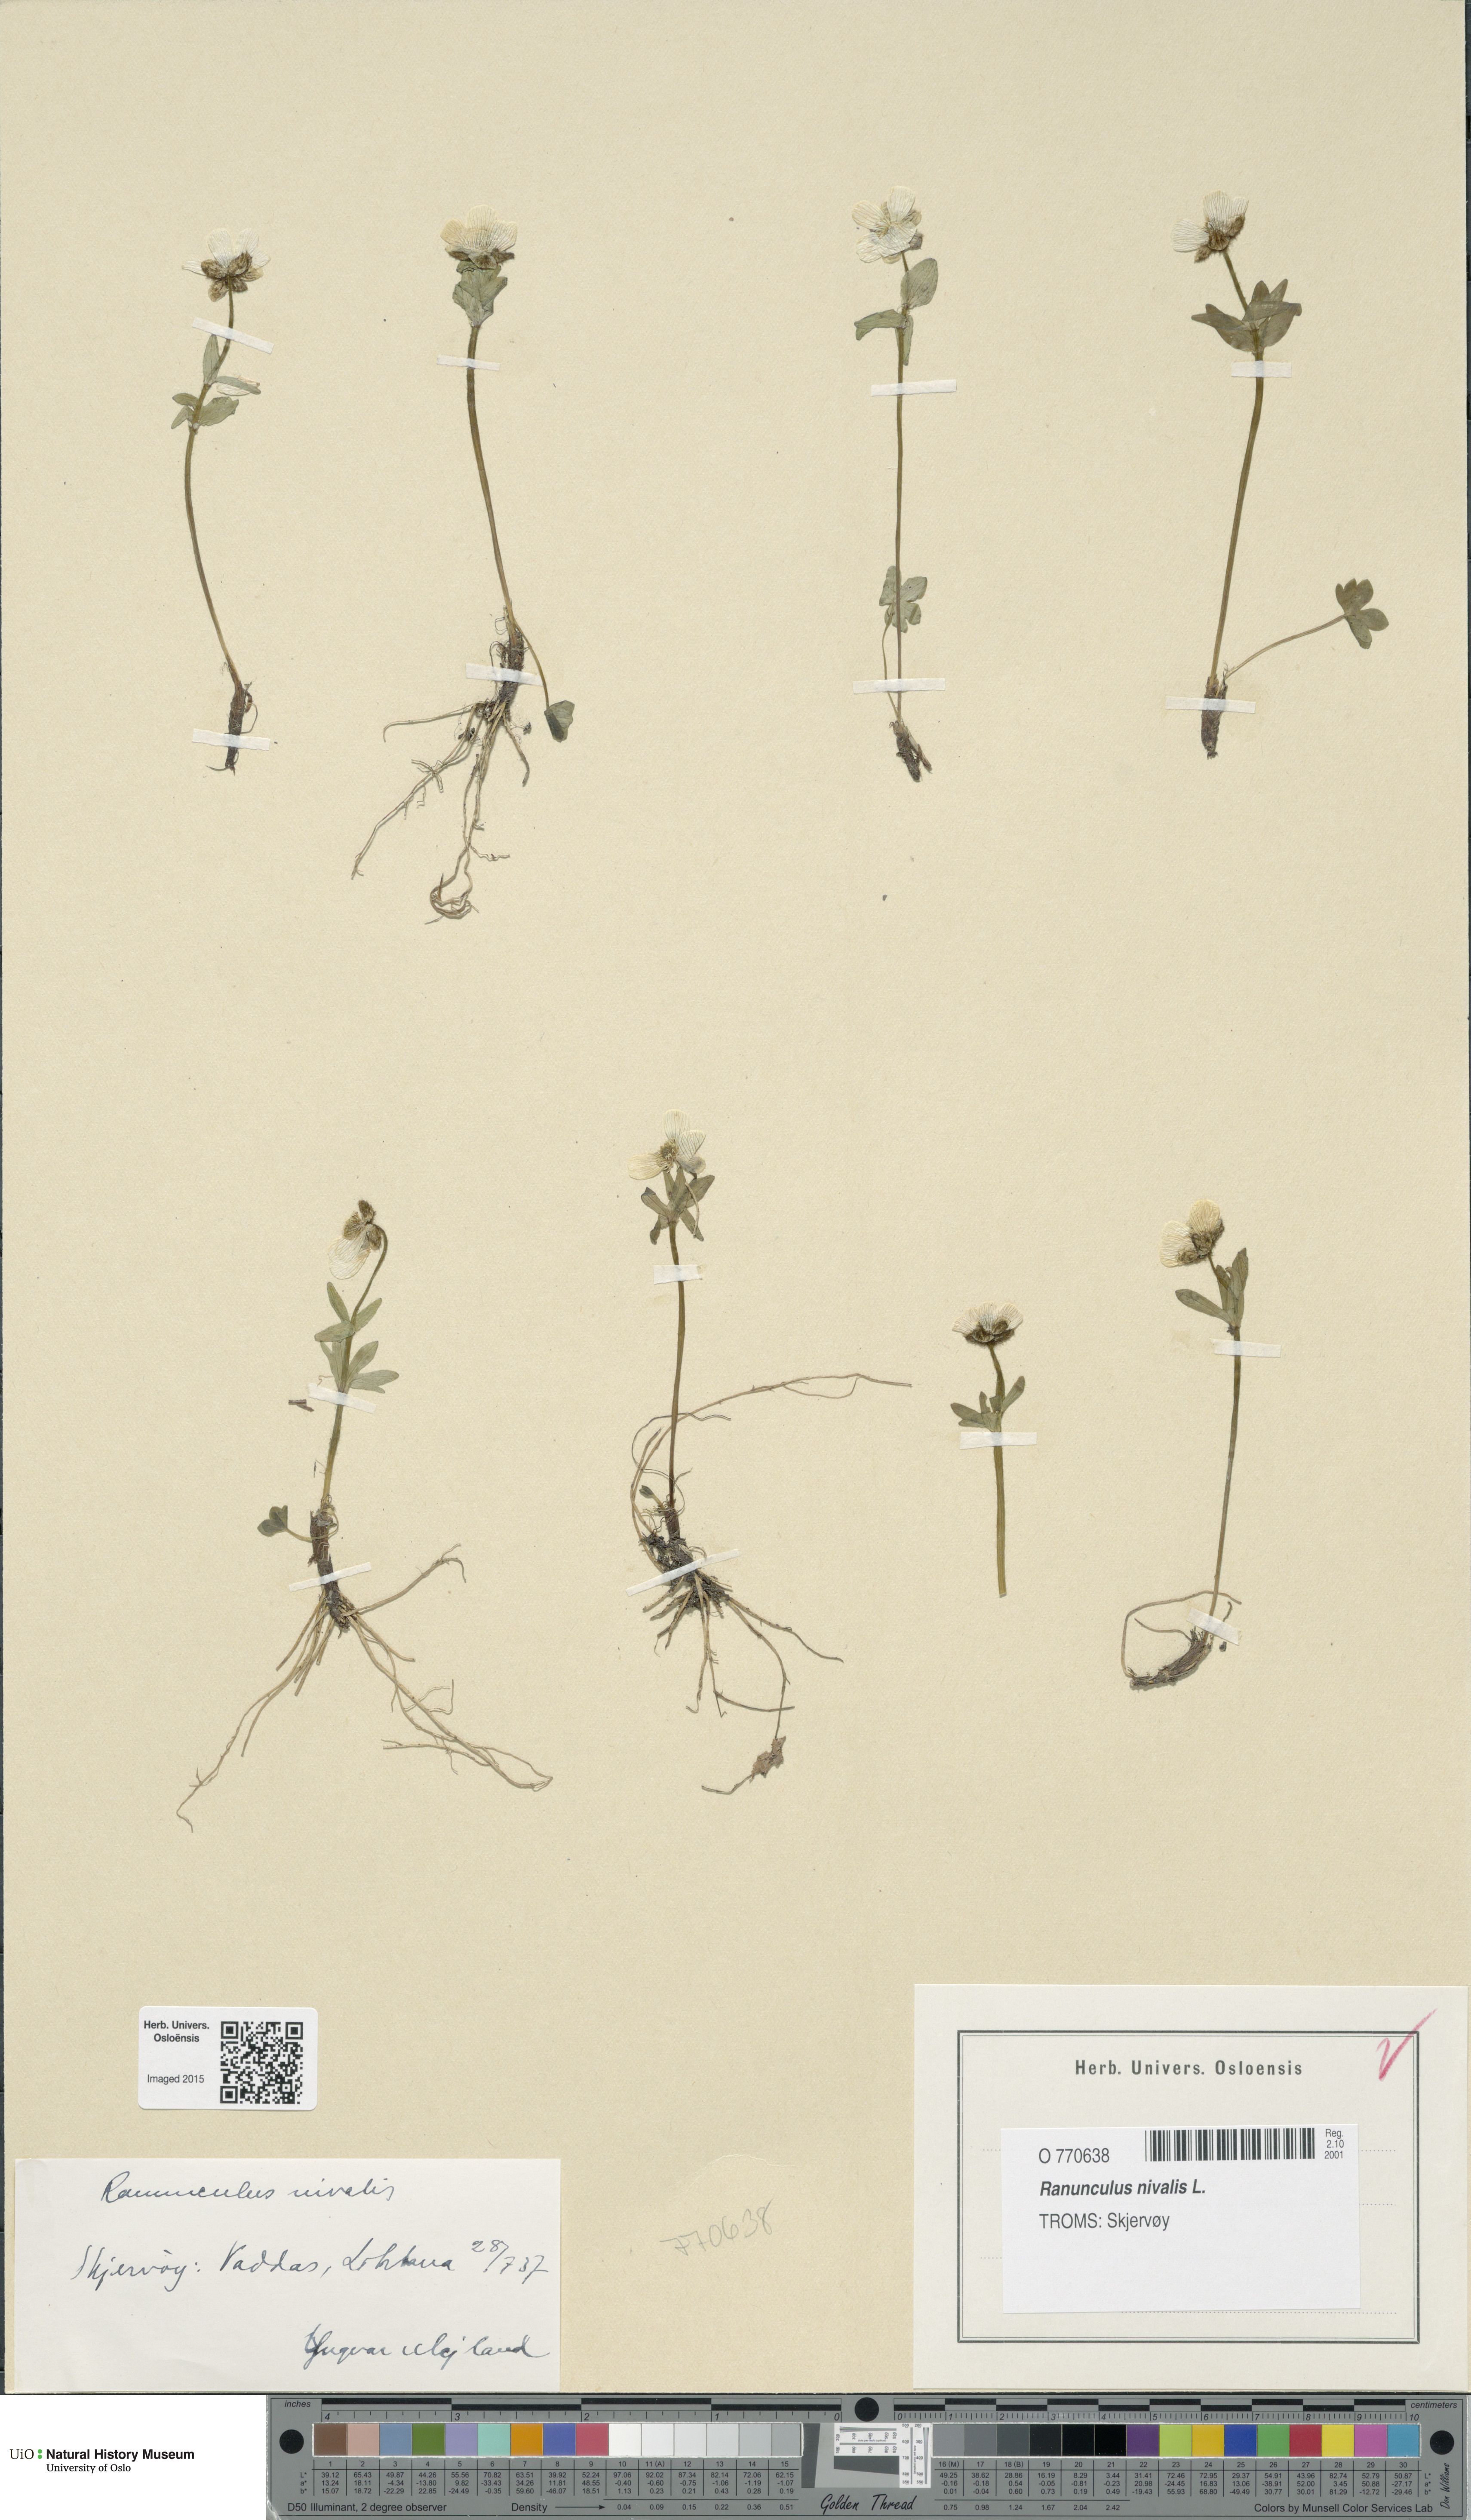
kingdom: Plantae
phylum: Tracheophyta
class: Magnoliopsida
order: Ranunculales
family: Ranunculaceae
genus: Ranunculus
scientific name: Ranunculus nivalis
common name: Snow buttercup
